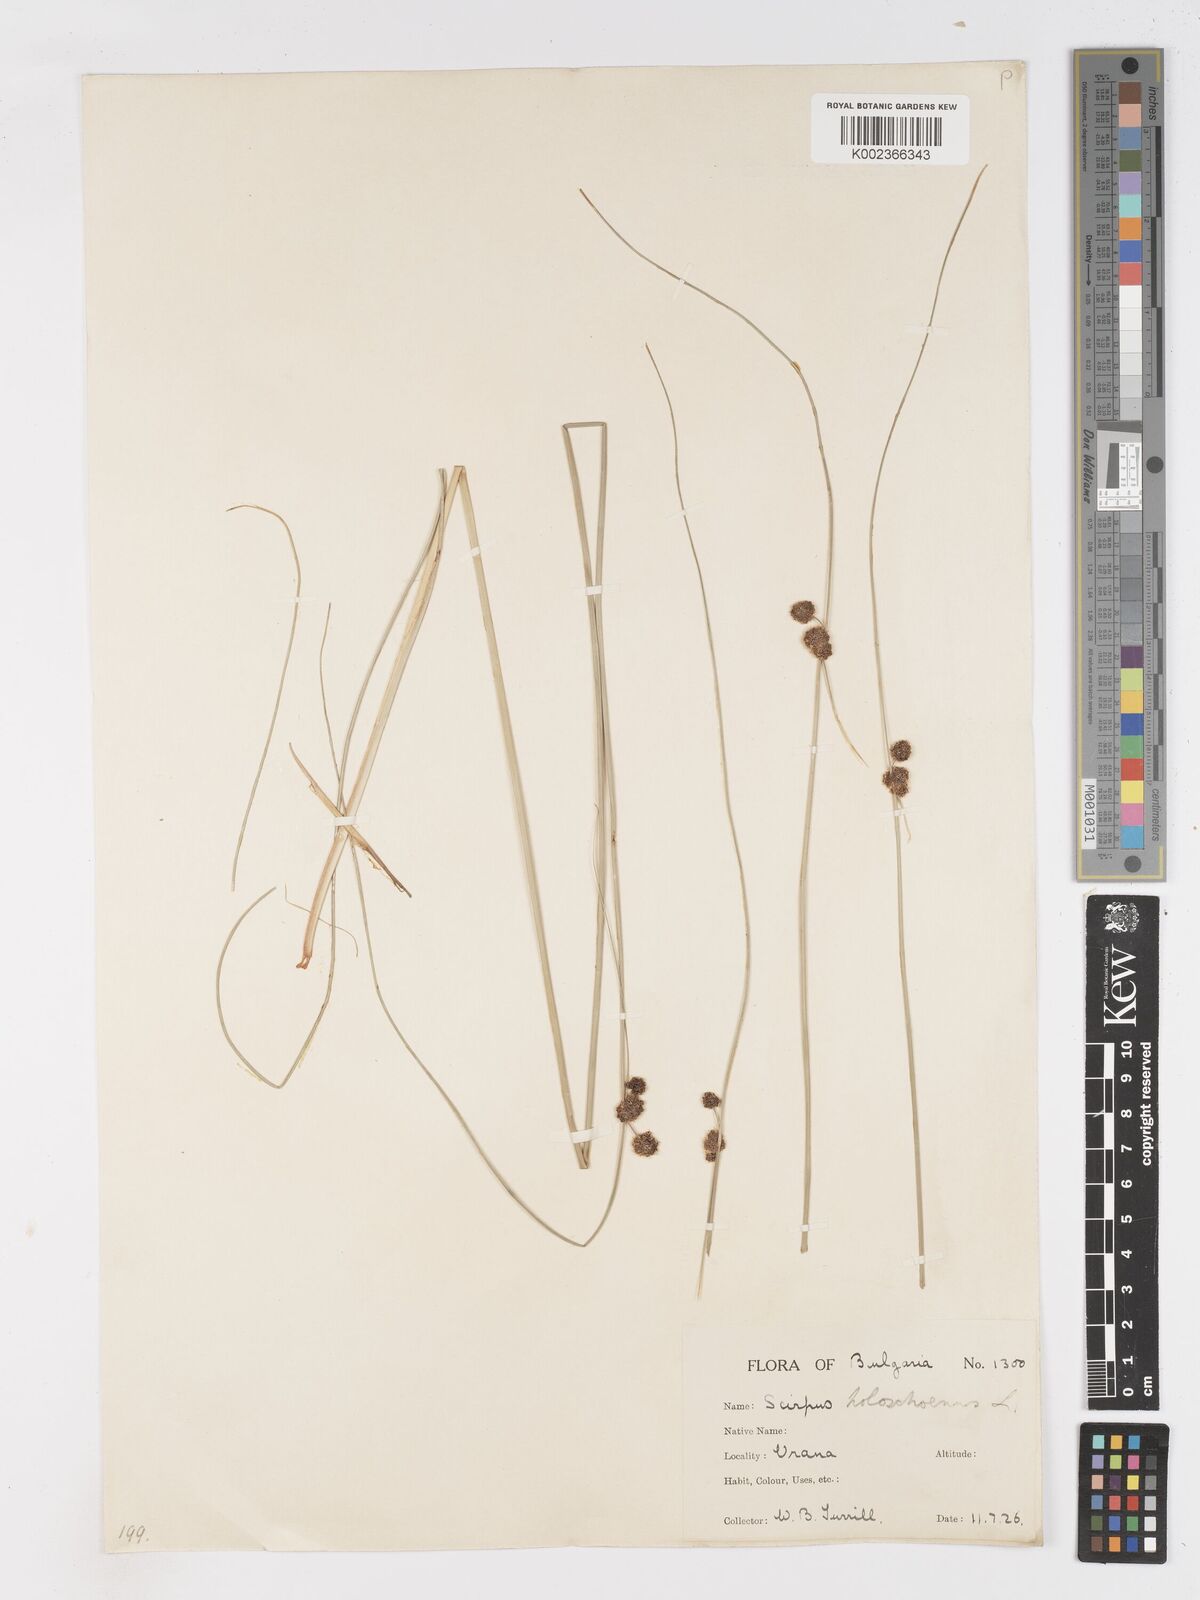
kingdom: Plantae
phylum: Tracheophyta
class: Liliopsida
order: Poales
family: Cyperaceae
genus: Scirpoides
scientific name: Scirpoides holoschoenus
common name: Round-headed club-rush
